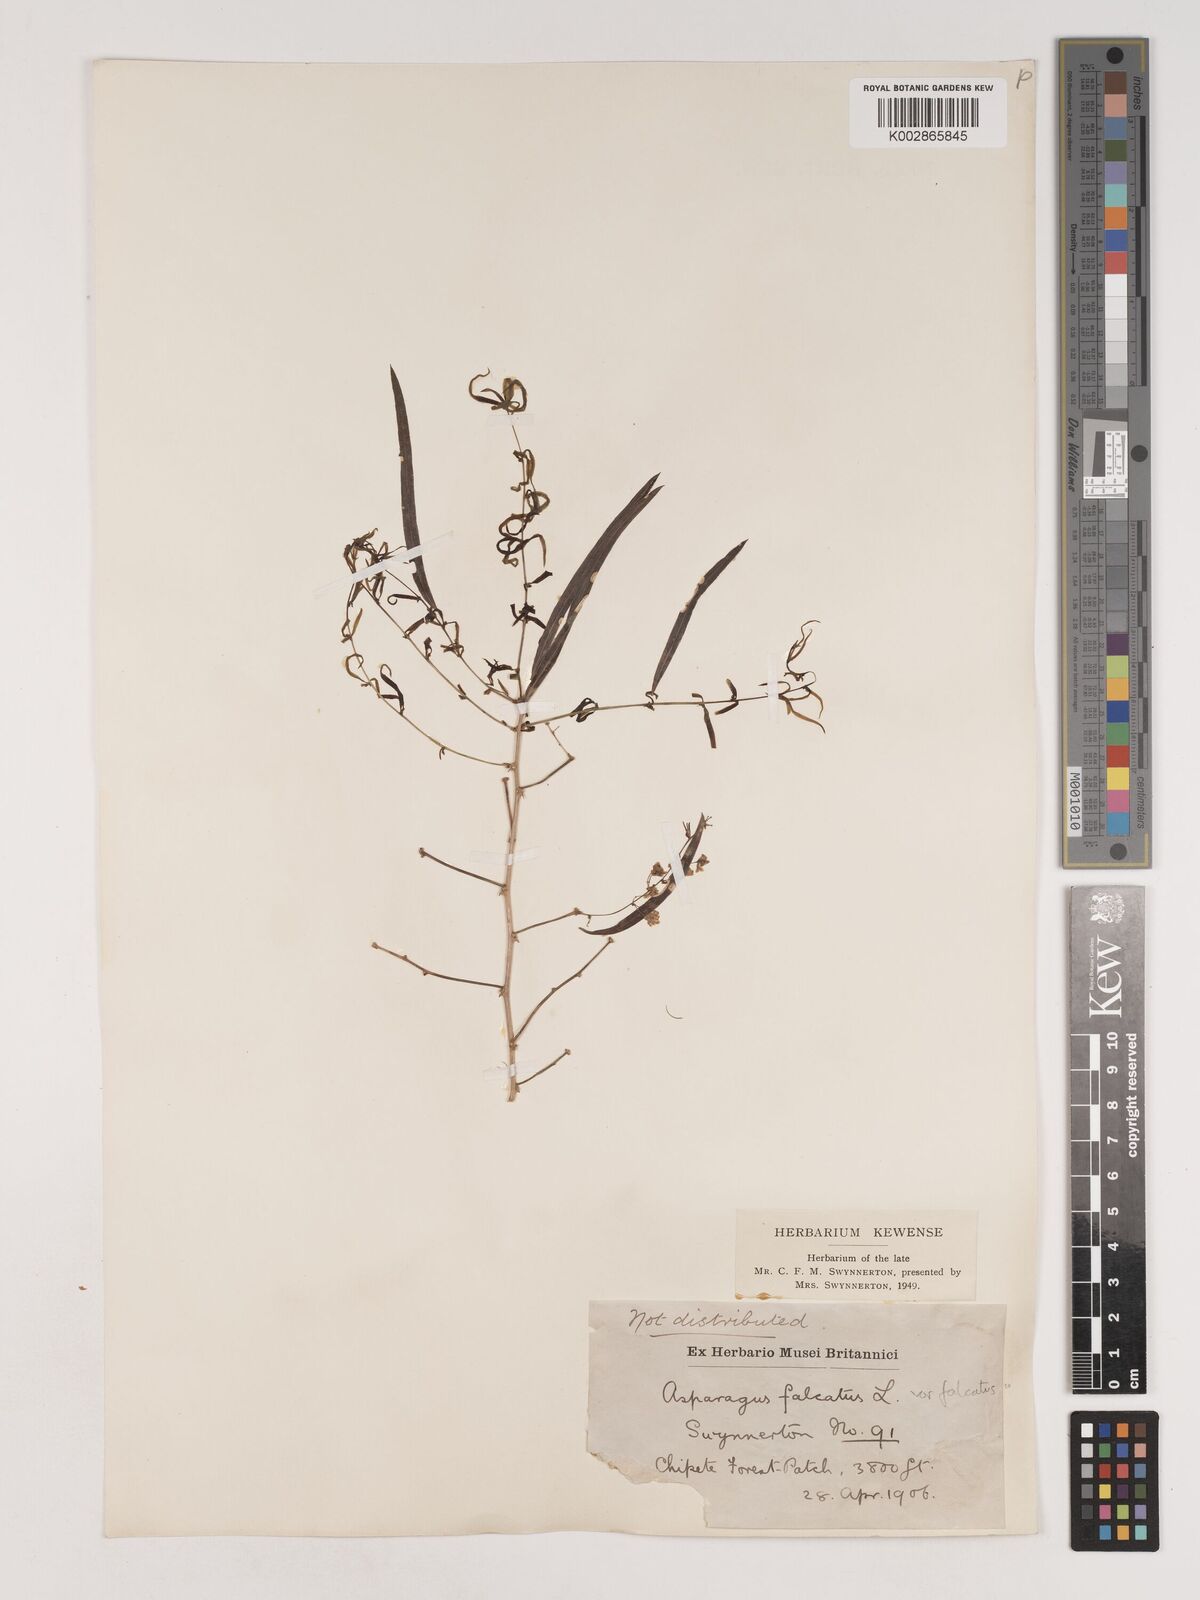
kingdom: Plantae
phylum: Tracheophyta
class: Liliopsida
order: Asparagales
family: Asparagaceae
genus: Asparagus
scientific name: Asparagus falcatus
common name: Asparagus
